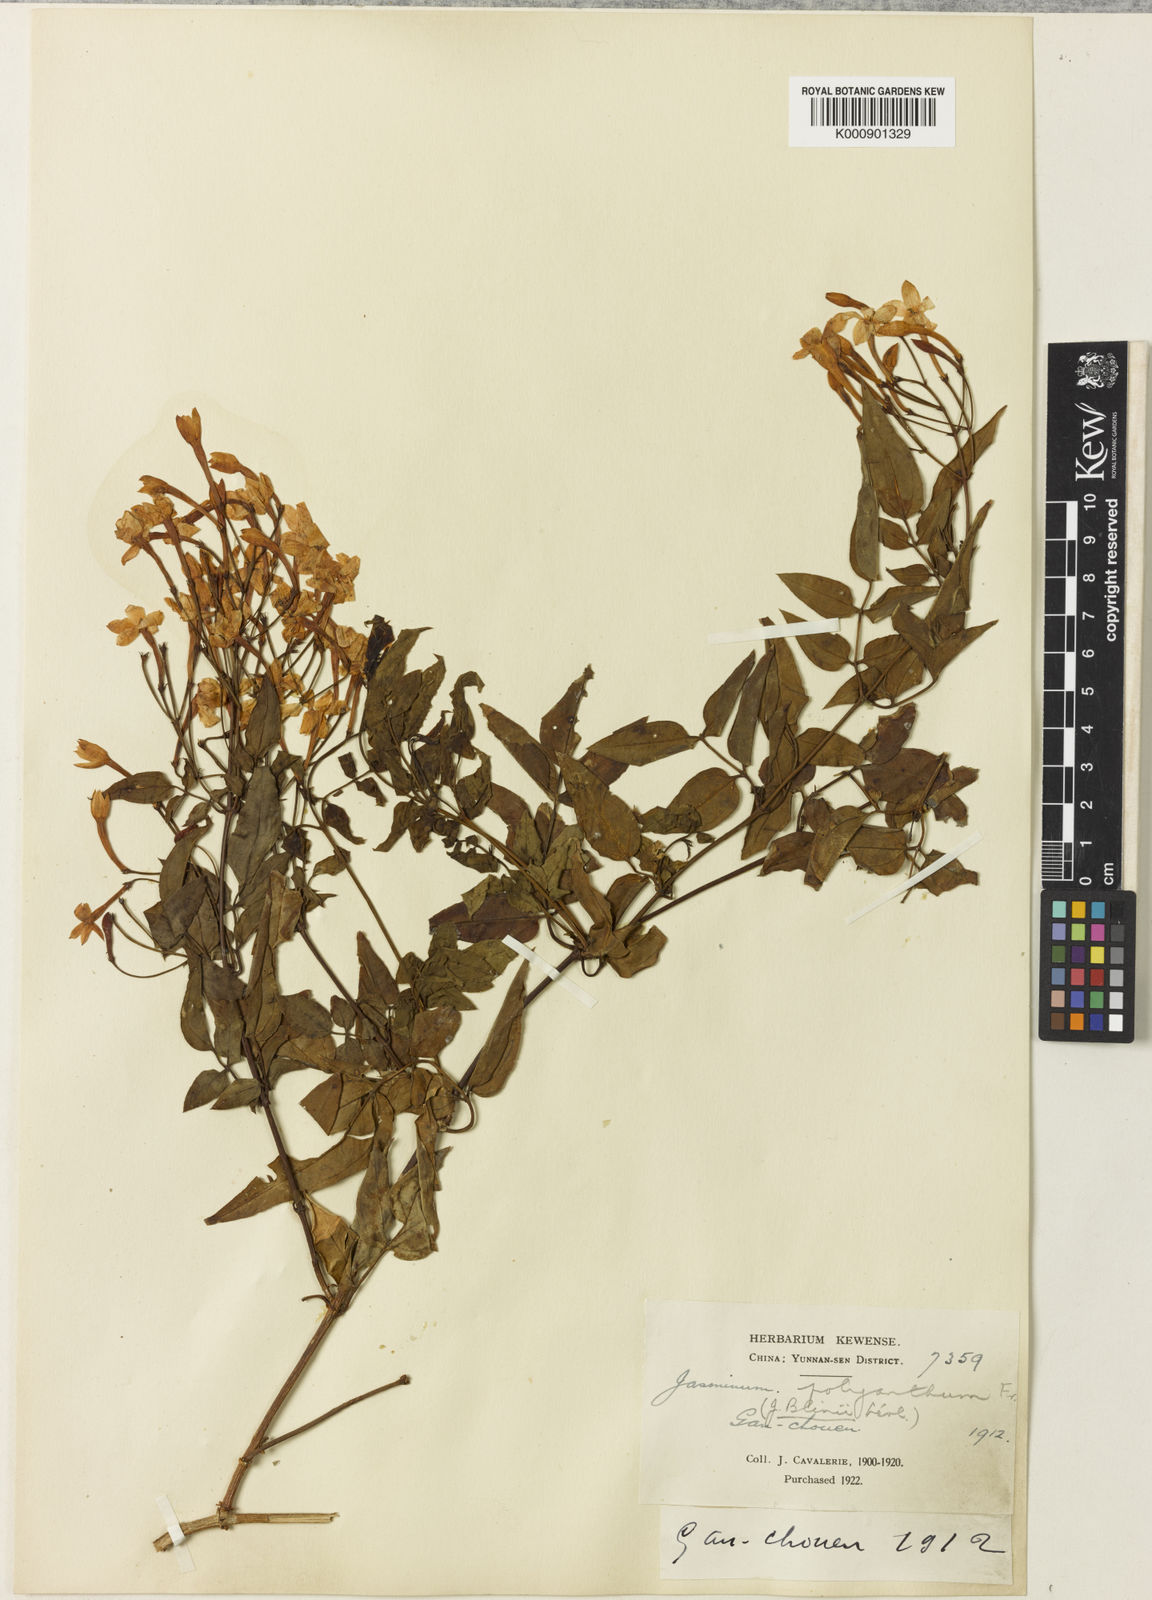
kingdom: Plantae
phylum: Tracheophyta
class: Magnoliopsida
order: Lamiales
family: Oleaceae
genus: Jasminum
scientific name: Jasminum polyanthum
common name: Pink jasmine
